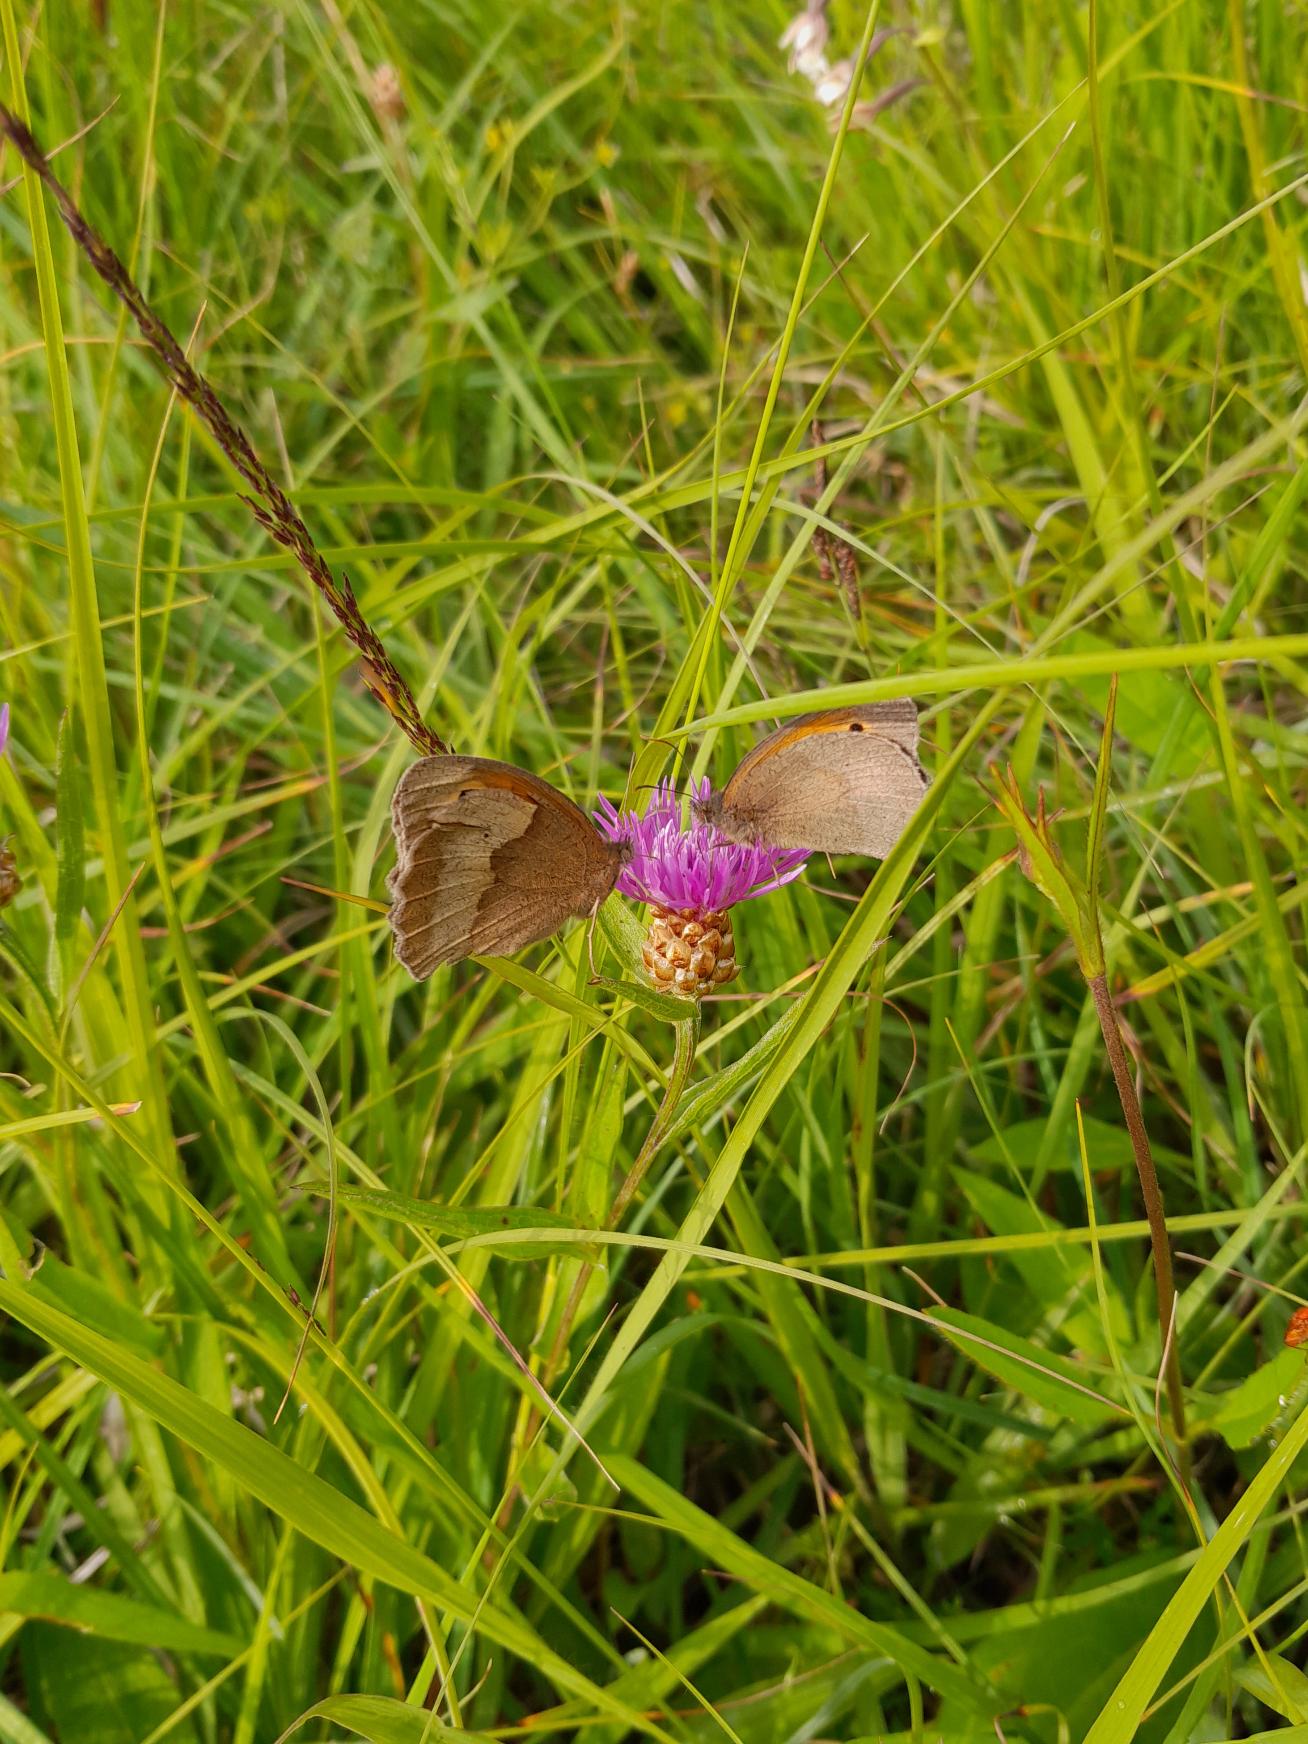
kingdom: Animalia
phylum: Arthropoda
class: Insecta
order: Lepidoptera
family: Nymphalidae
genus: Maniola
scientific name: Maniola jurtina
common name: Græsrandøje
